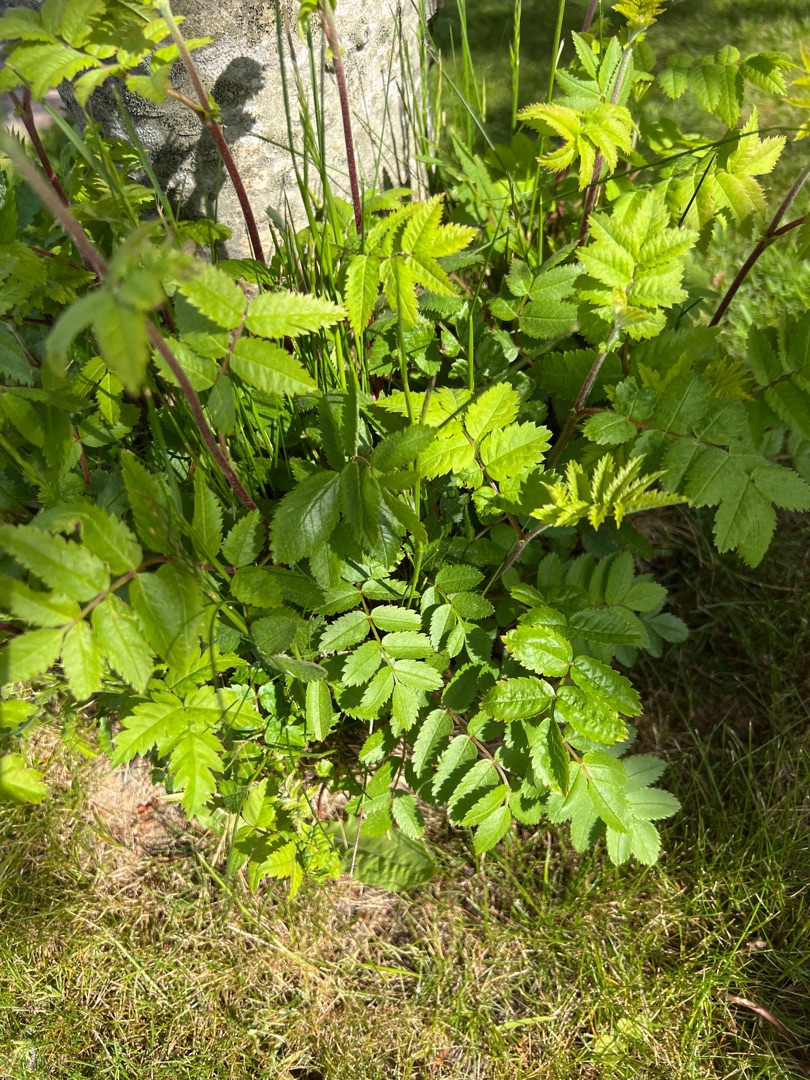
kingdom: Plantae
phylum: Tracheophyta
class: Magnoliopsida
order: Rosales
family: Rosaceae
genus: Sorbus
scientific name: Sorbus aucuparia
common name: Almindelig røn
